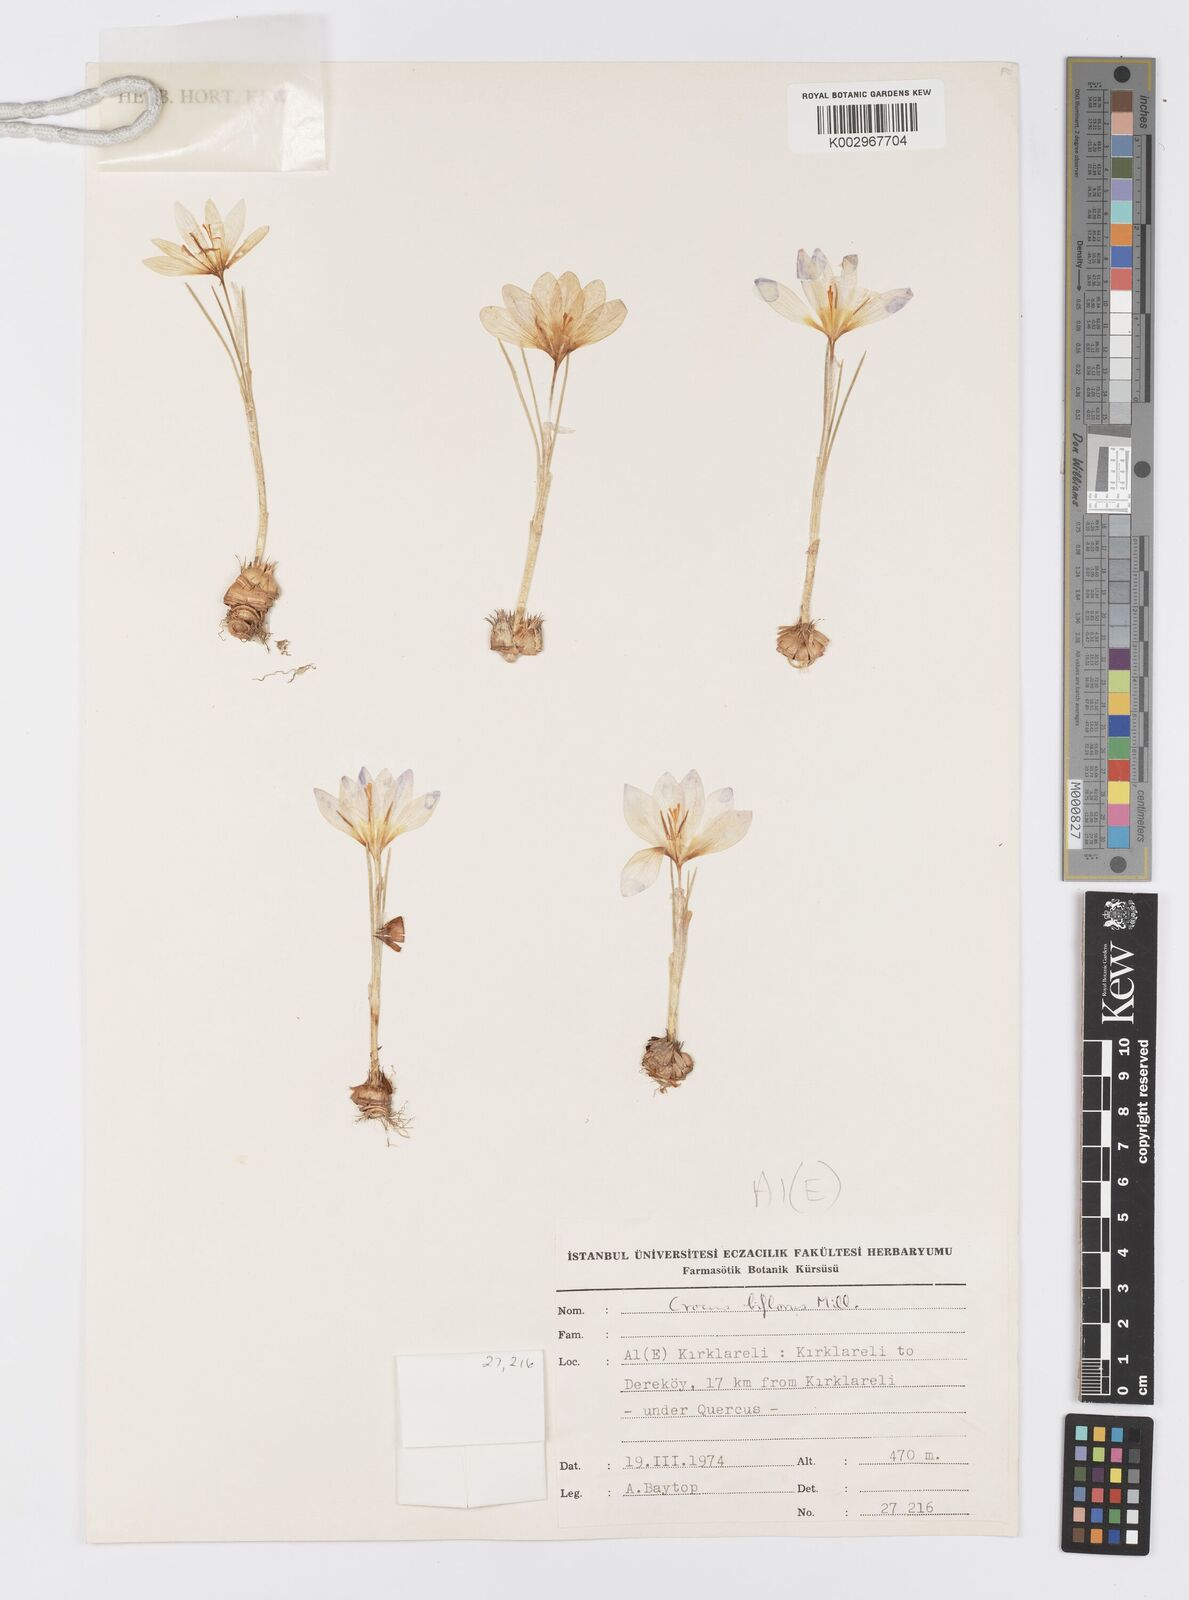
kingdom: Plantae
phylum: Tracheophyta
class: Liliopsida
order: Asparagales
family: Iridaceae
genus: Crocus
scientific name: Crocus adami
